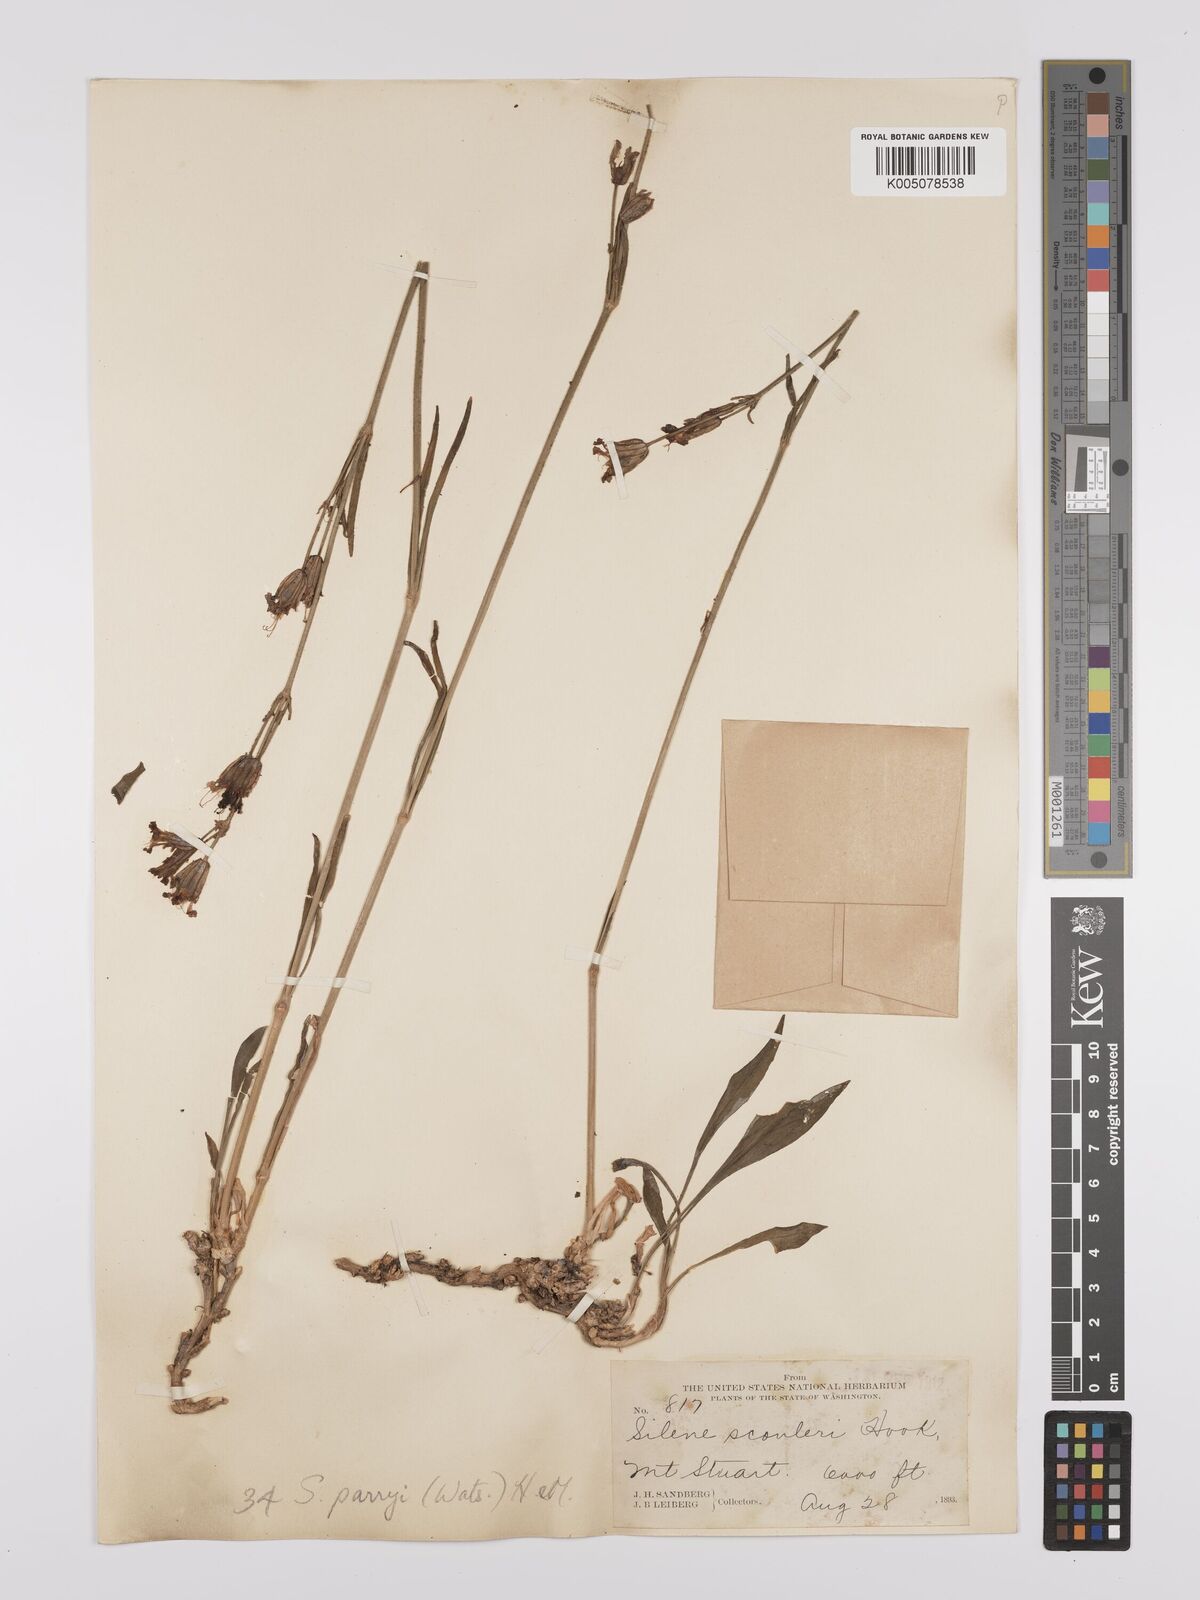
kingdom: Plantae
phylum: Tracheophyta
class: Magnoliopsida
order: Caryophyllales
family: Caryophyllaceae
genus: Silene
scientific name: Silene parryi
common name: Parry's campion
